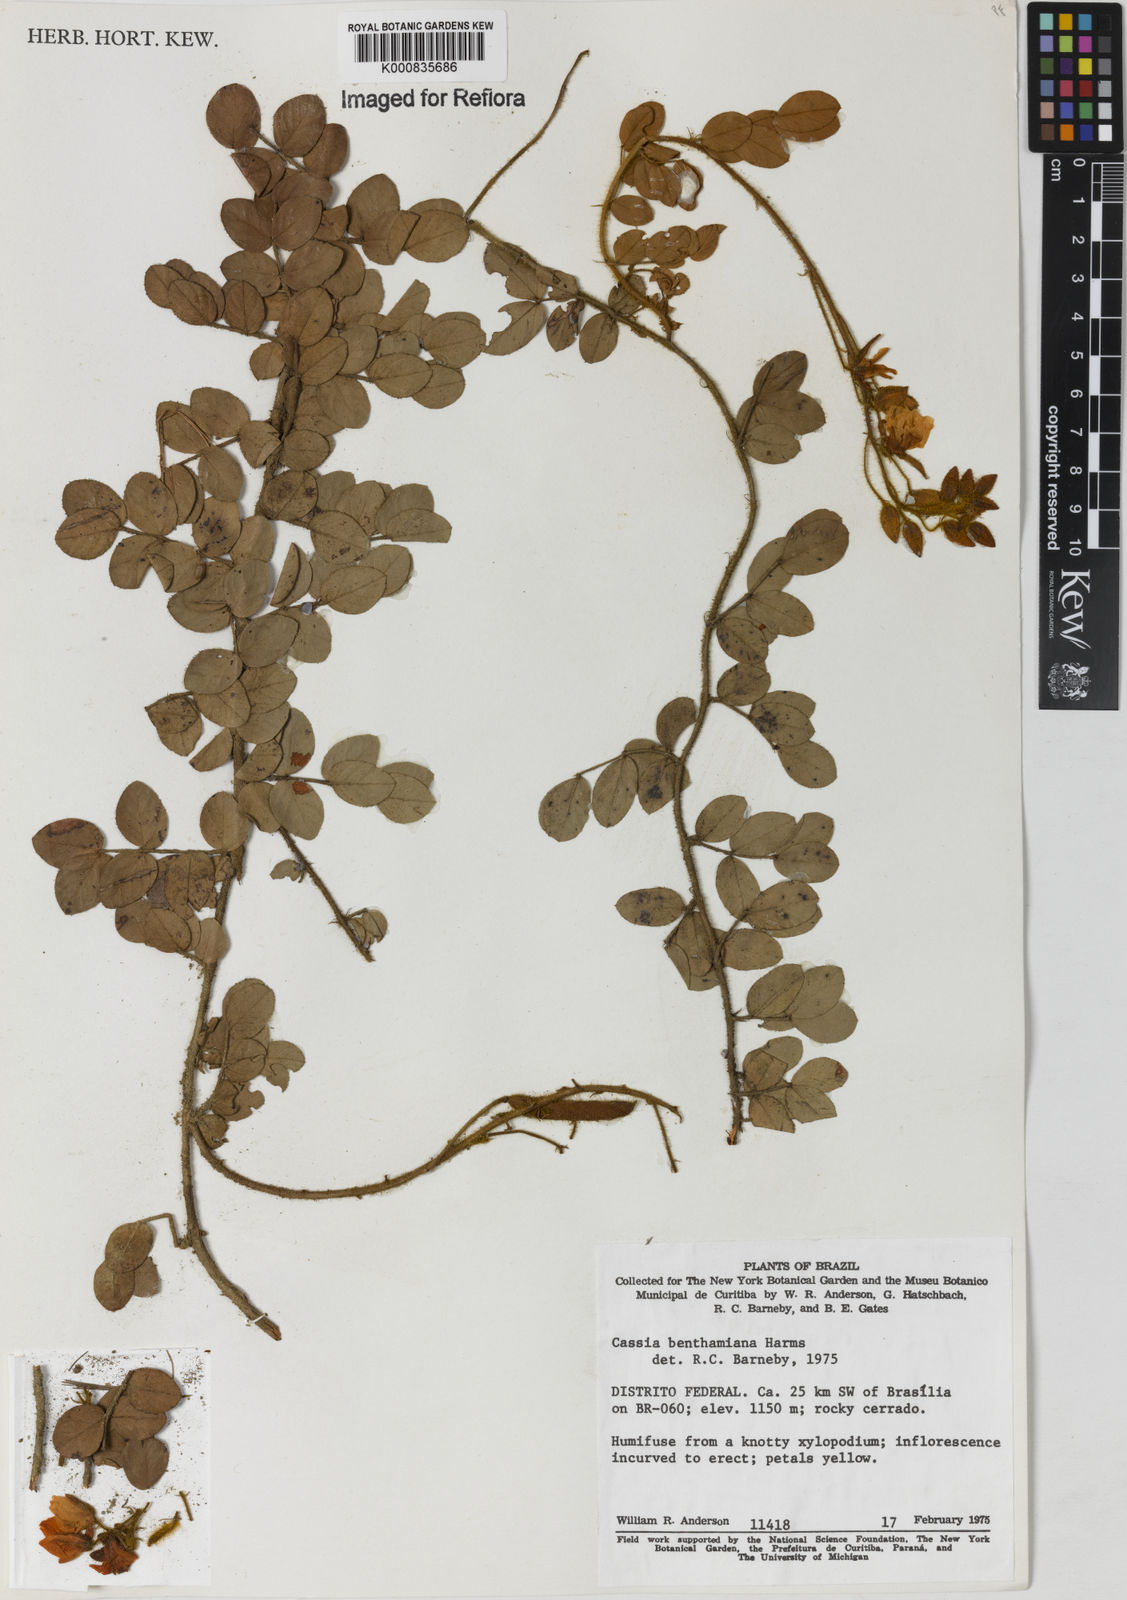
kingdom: Plantae
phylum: Tracheophyta
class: Magnoliopsida
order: Fabales
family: Fabaceae
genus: Chamaecrista
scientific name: Chamaecrista benthamiana
